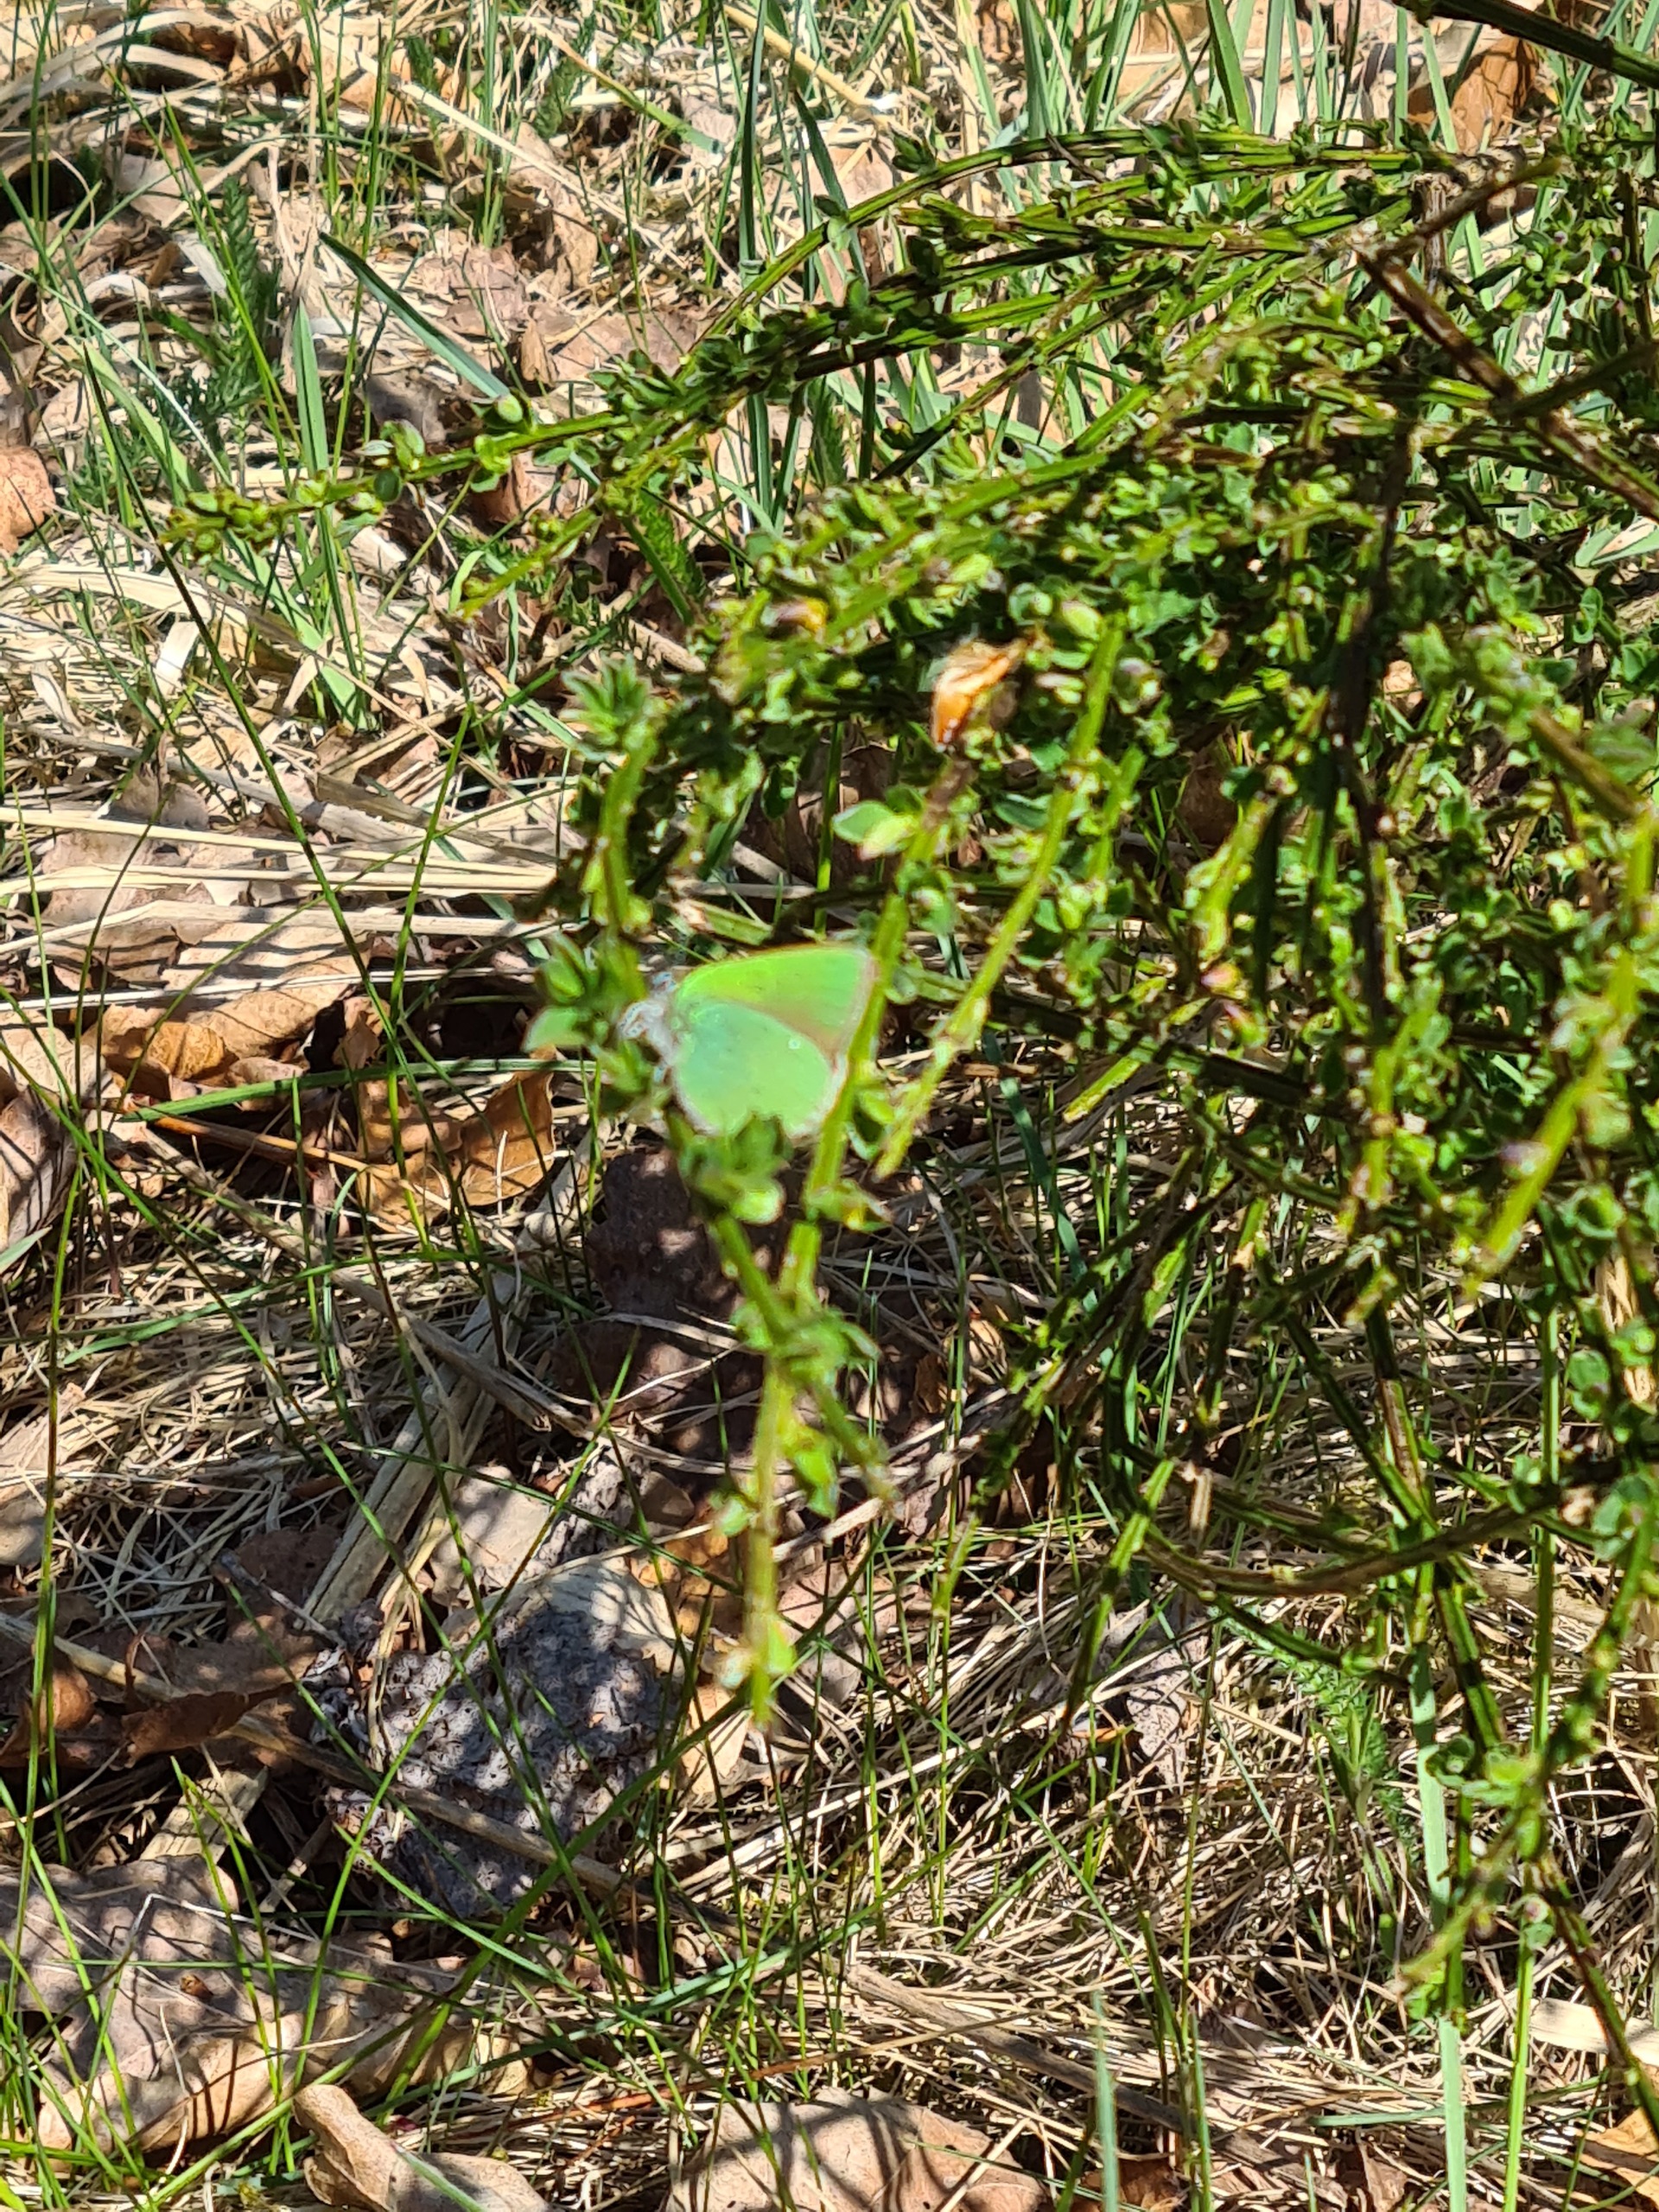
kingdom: Animalia
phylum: Arthropoda
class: Insecta
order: Lepidoptera
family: Lycaenidae
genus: Callophrys
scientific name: Callophrys rubi
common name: Grøn busksommerfugl
